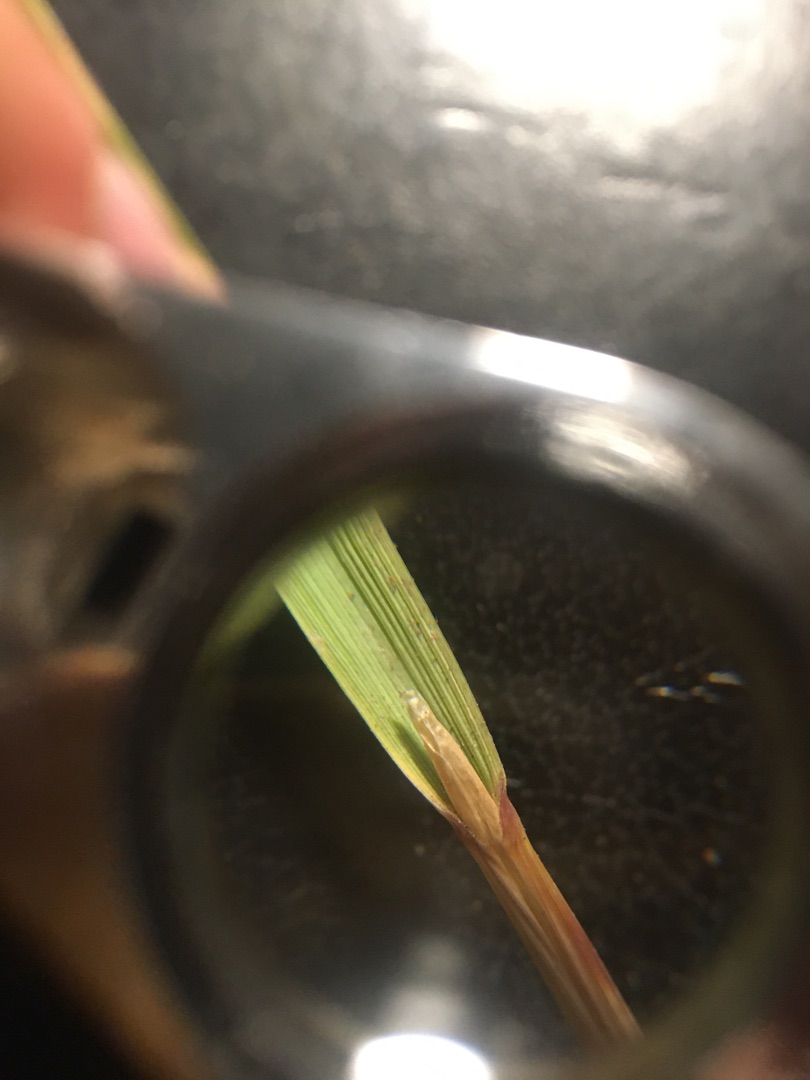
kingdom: Plantae
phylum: Tracheophyta
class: Liliopsida
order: Poales
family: Poaceae
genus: Calamagrostis
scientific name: Calamagrostis epigejos
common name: Bjerg-rørhvene
